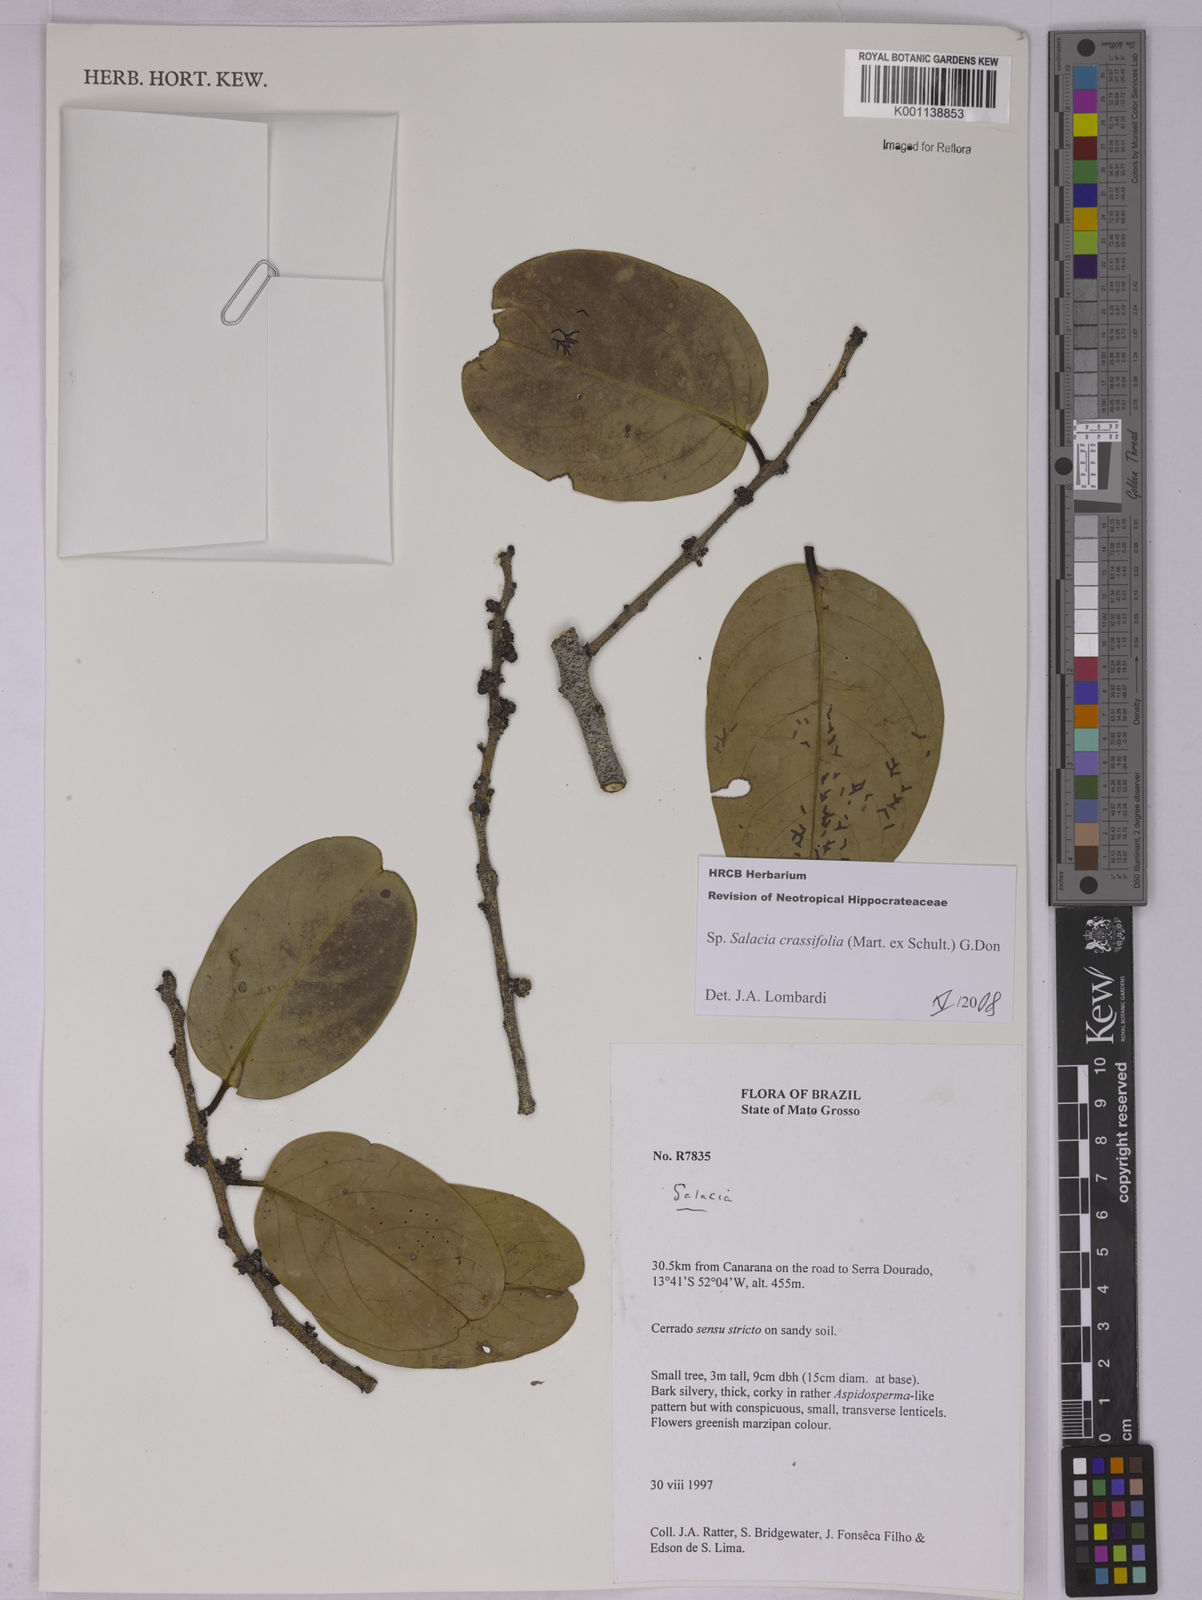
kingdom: Plantae
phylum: Tracheophyta
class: Magnoliopsida
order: Celastrales
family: Celastraceae
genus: Salacia
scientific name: Salacia crassifolia
